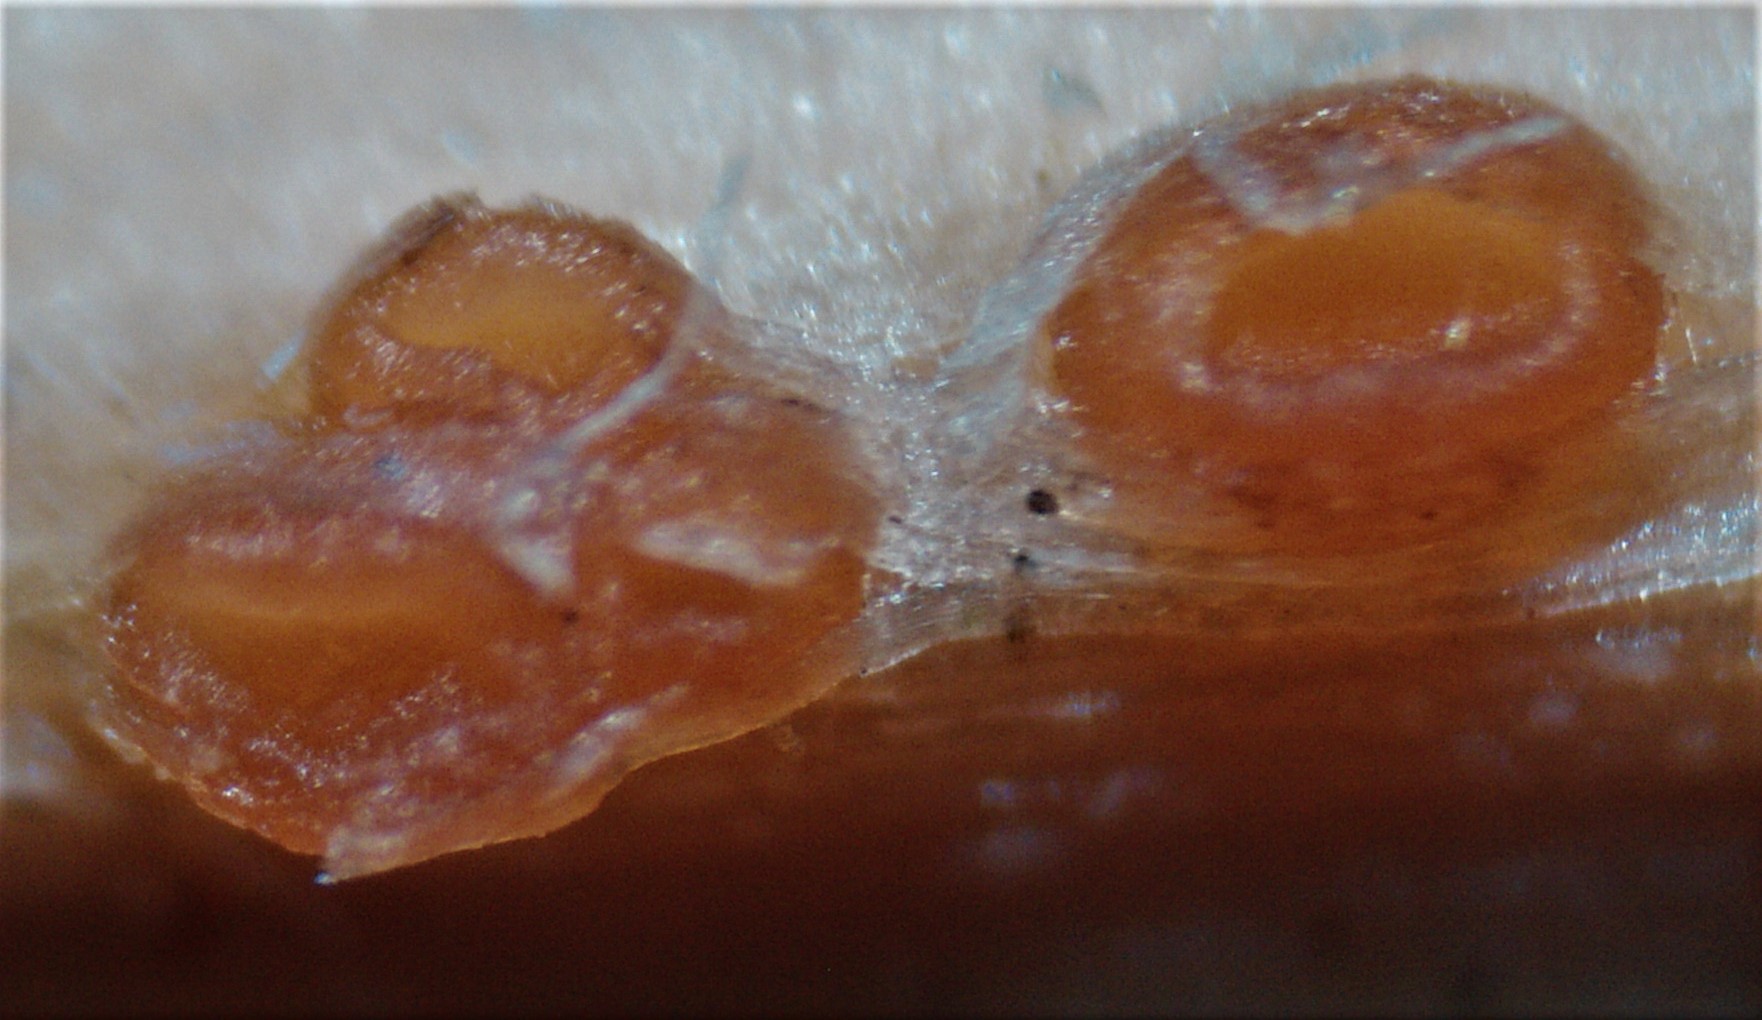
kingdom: Fungi
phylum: Ascomycota
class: Leotiomycetes
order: Helotiales
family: Calloriaceae
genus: Calloria
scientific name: Calloria urticae
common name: nælde-orangeskive
